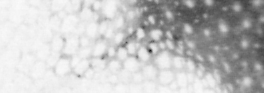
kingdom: Animalia
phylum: Chordata
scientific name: Chordata
